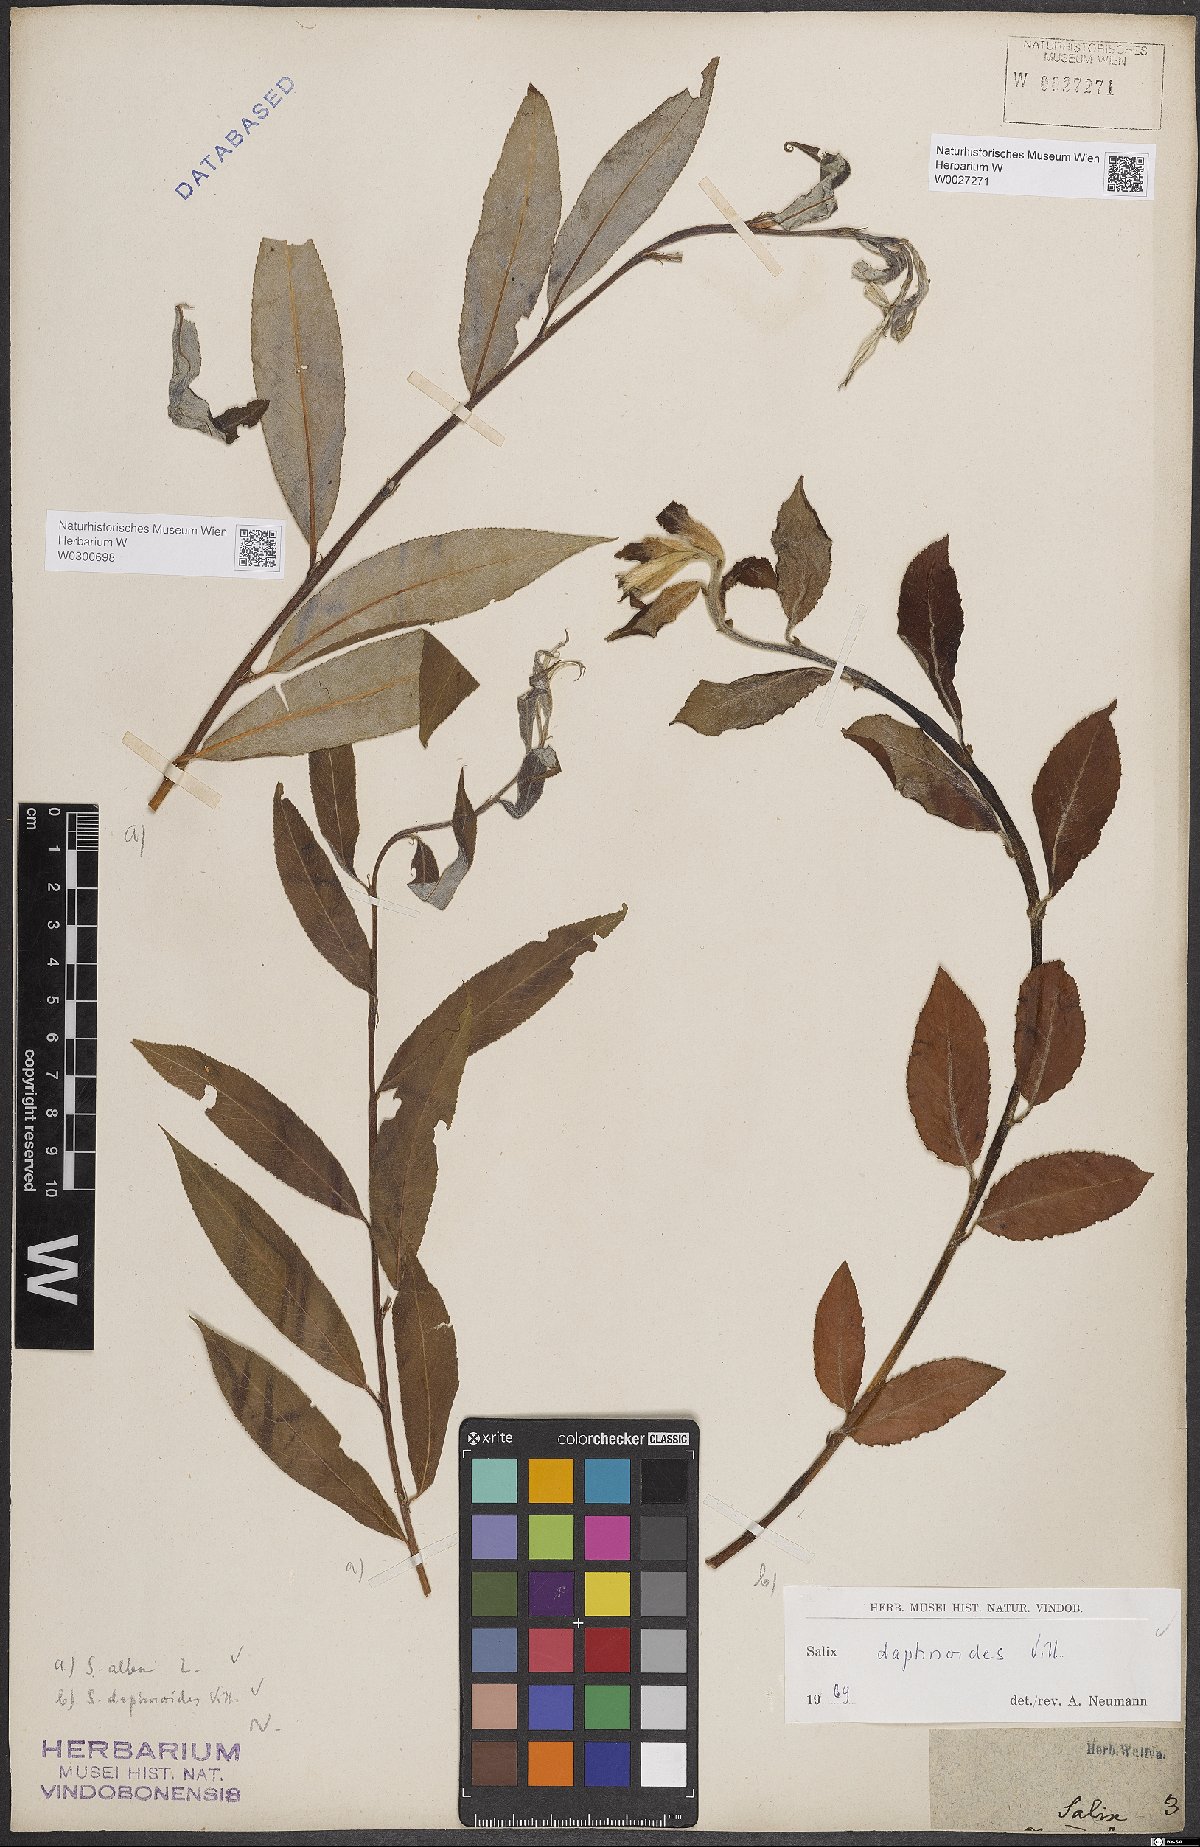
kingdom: Plantae
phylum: Tracheophyta
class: Magnoliopsida
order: Malpighiales
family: Salicaceae
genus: Salix
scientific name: Salix alba
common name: White willow
